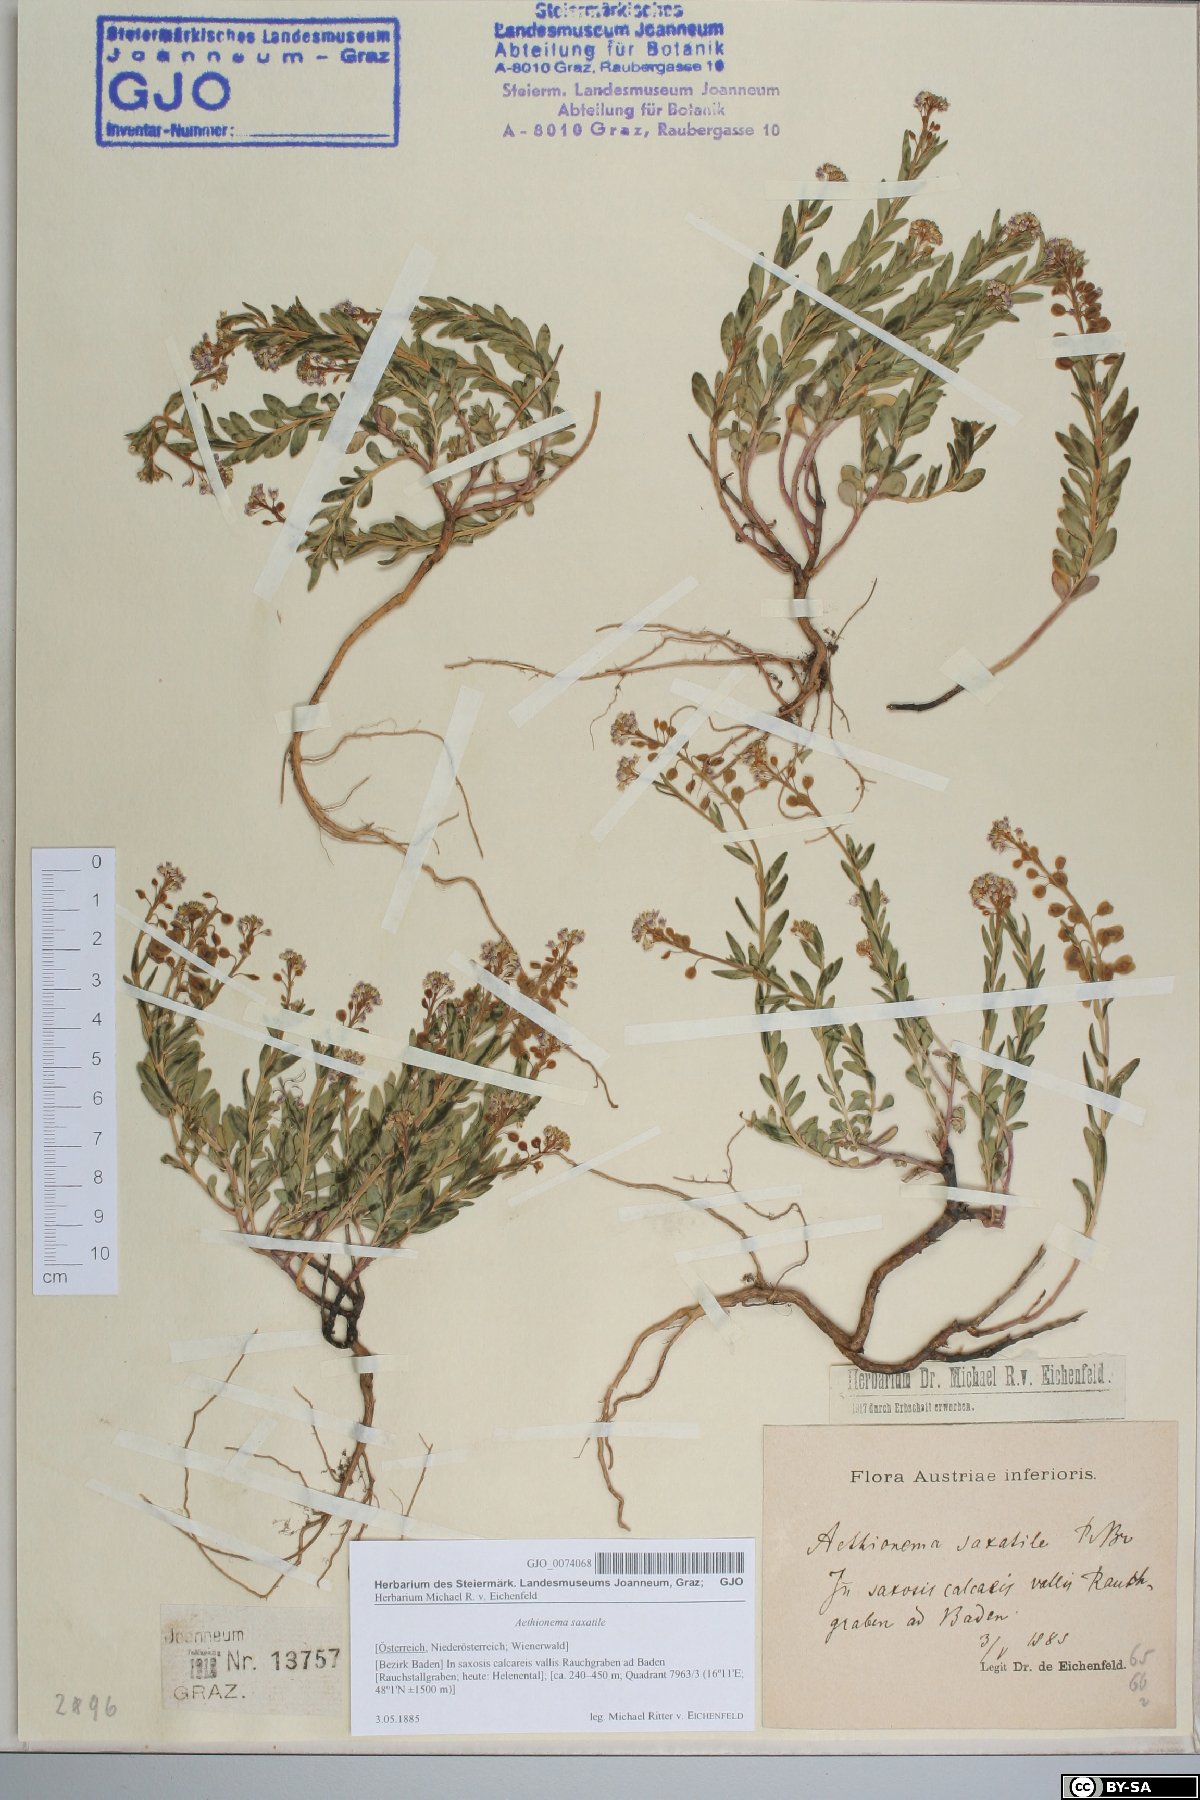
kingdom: Plantae
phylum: Tracheophyta
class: Magnoliopsida
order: Brassicales
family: Brassicaceae
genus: Aethionema
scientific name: Aethionema saxatile
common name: Burnt candytuft
